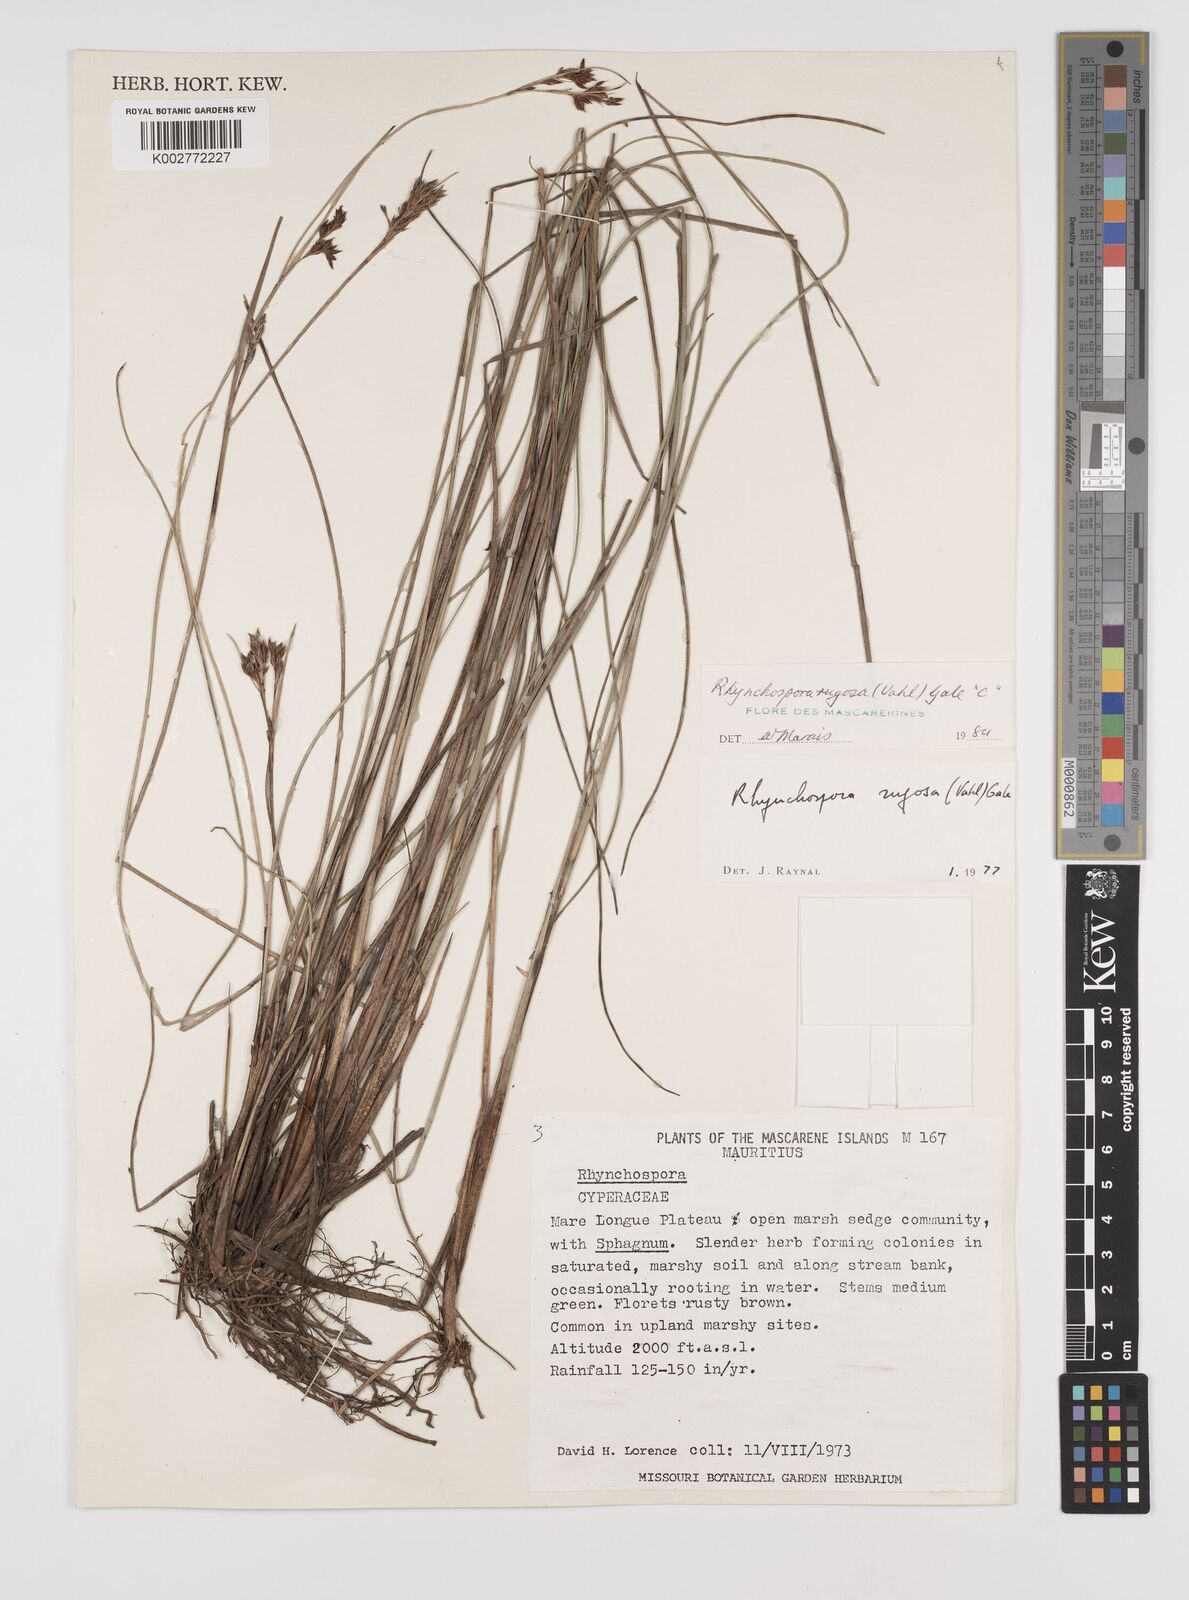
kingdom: Plantae
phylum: Tracheophyta
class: Liliopsida
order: Poales
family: Cyperaceae
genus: Rhynchospora
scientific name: Rhynchospora rugosa
